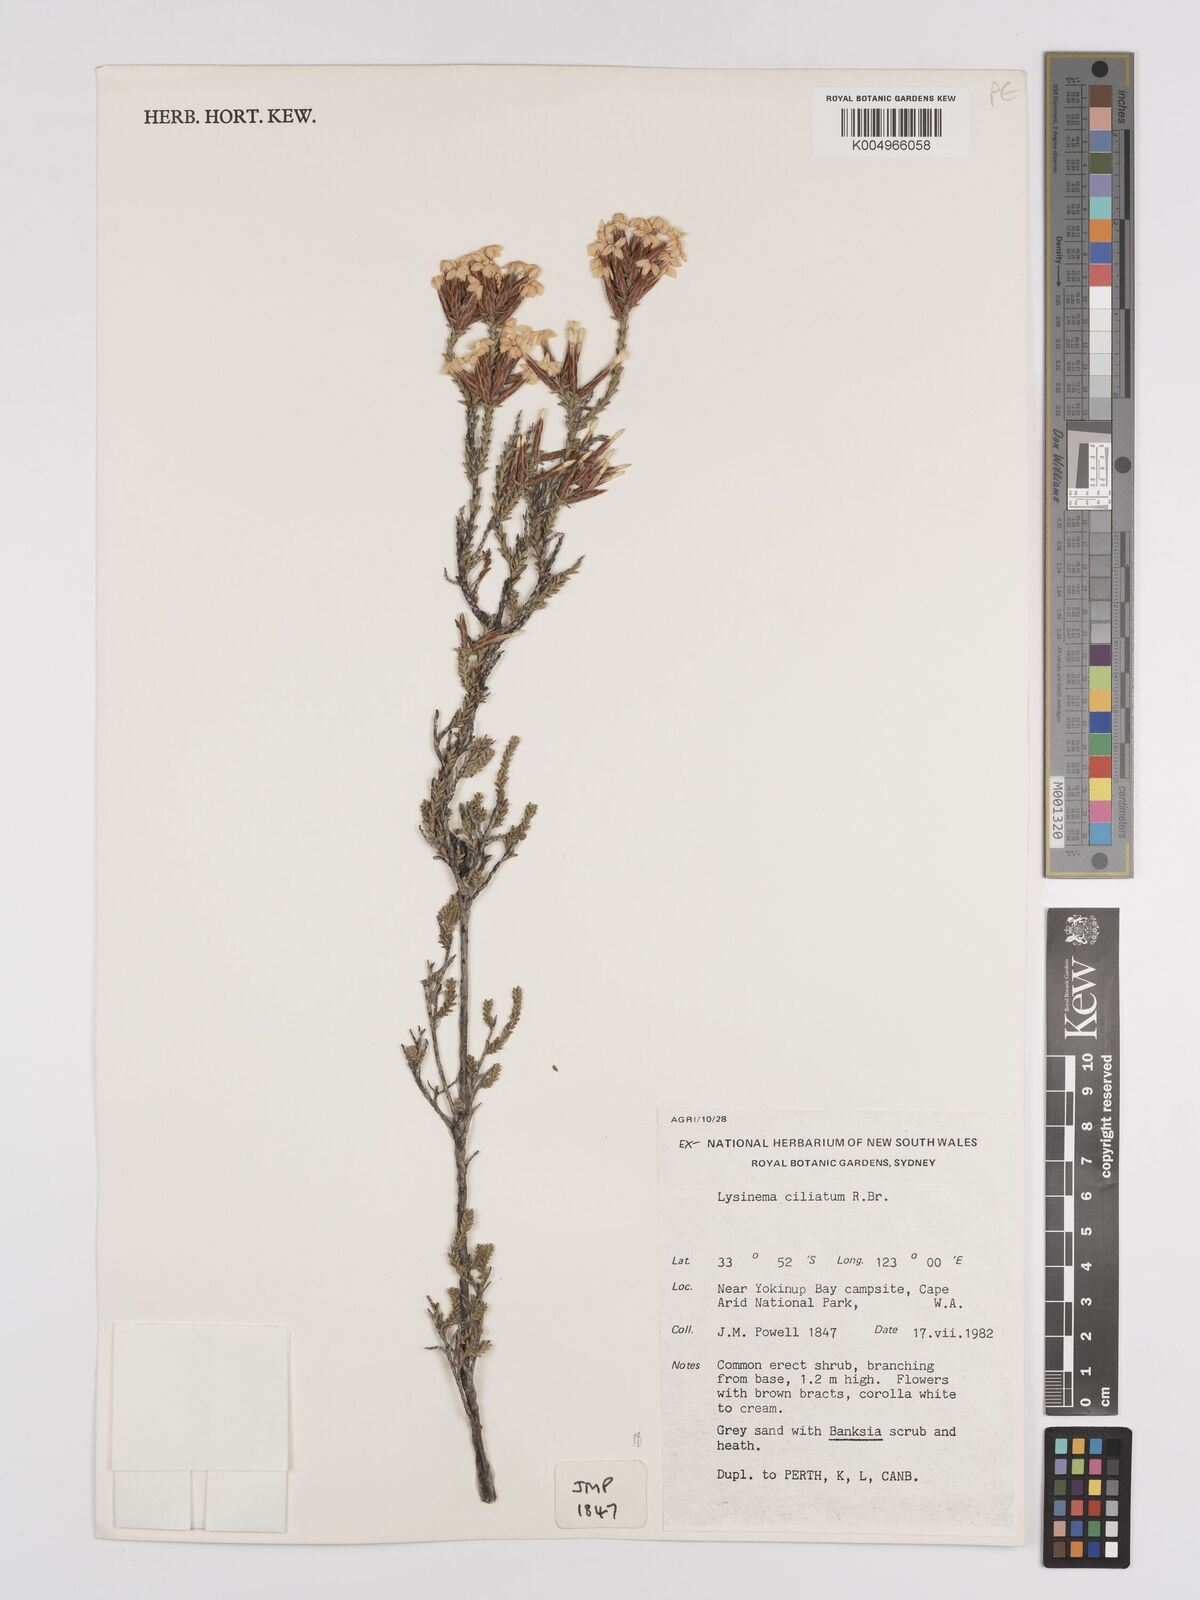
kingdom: Plantae
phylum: Tracheophyta
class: Magnoliopsida
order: Ericales
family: Ericaceae
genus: Lysinema
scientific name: Lysinema ciliatum
